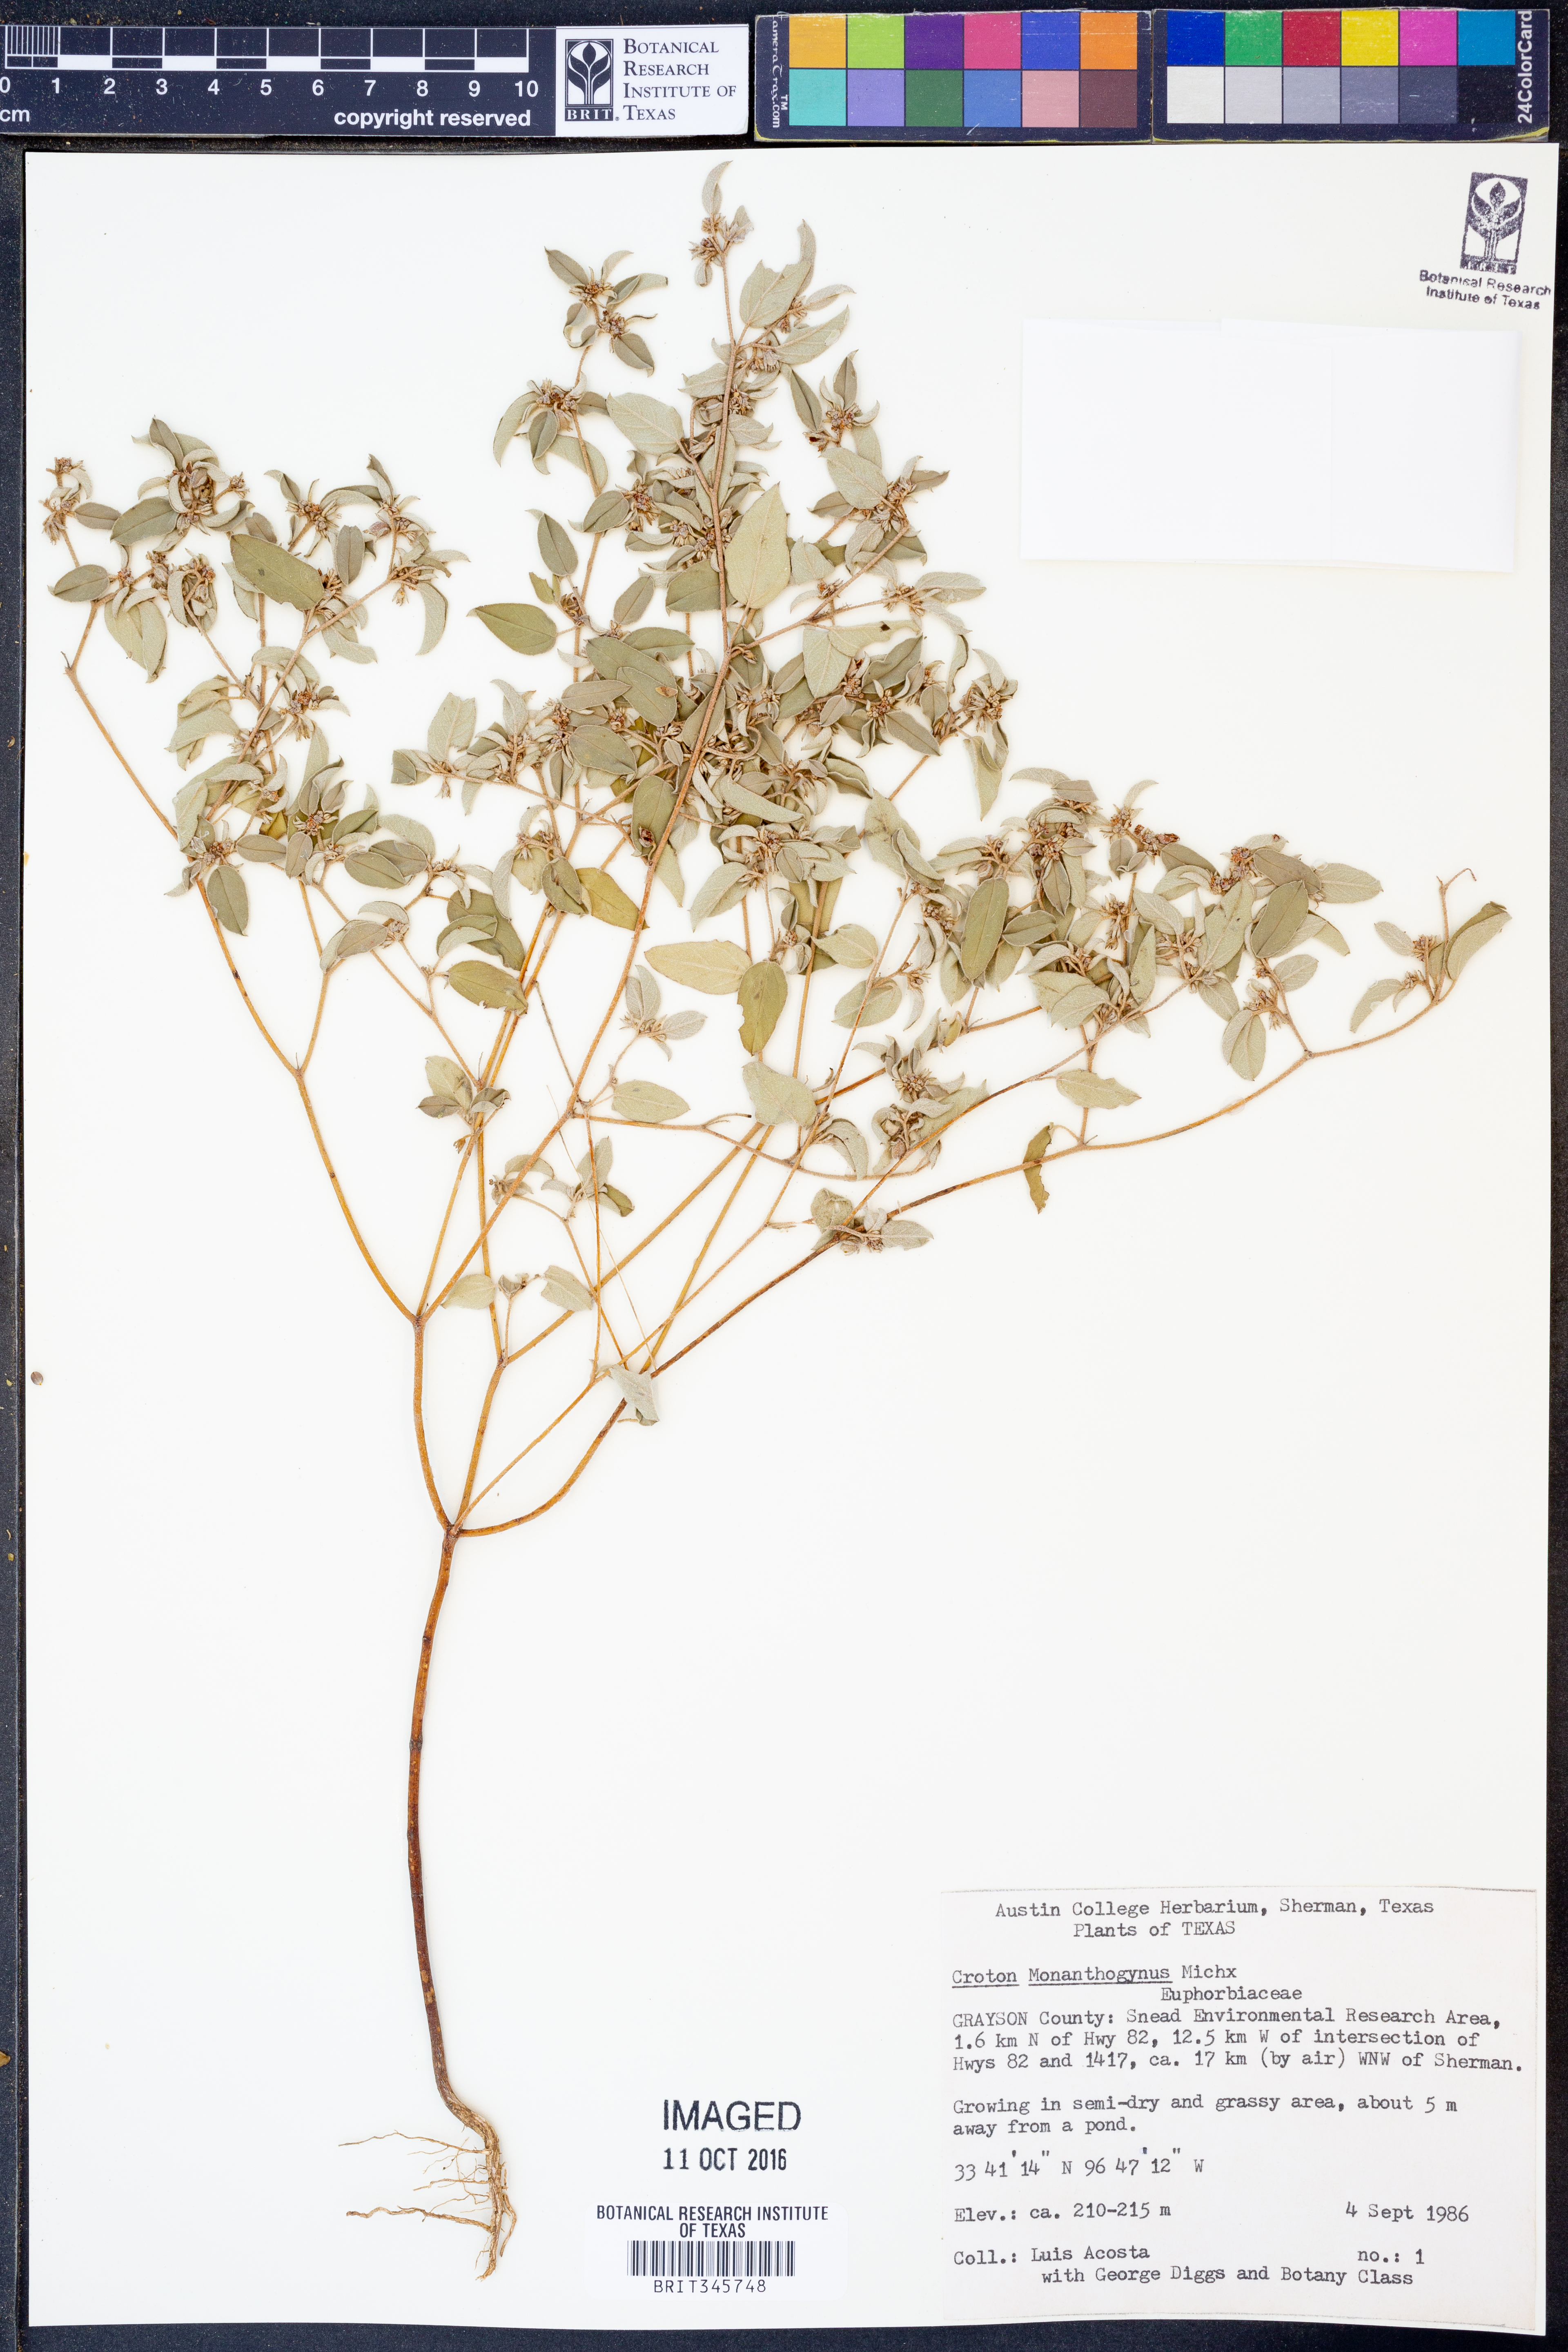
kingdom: Plantae
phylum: Tracheophyta
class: Magnoliopsida
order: Malpighiales
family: Euphorbiaceae
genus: Croton
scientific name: Croton monanthogynus
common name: One-seed croton
